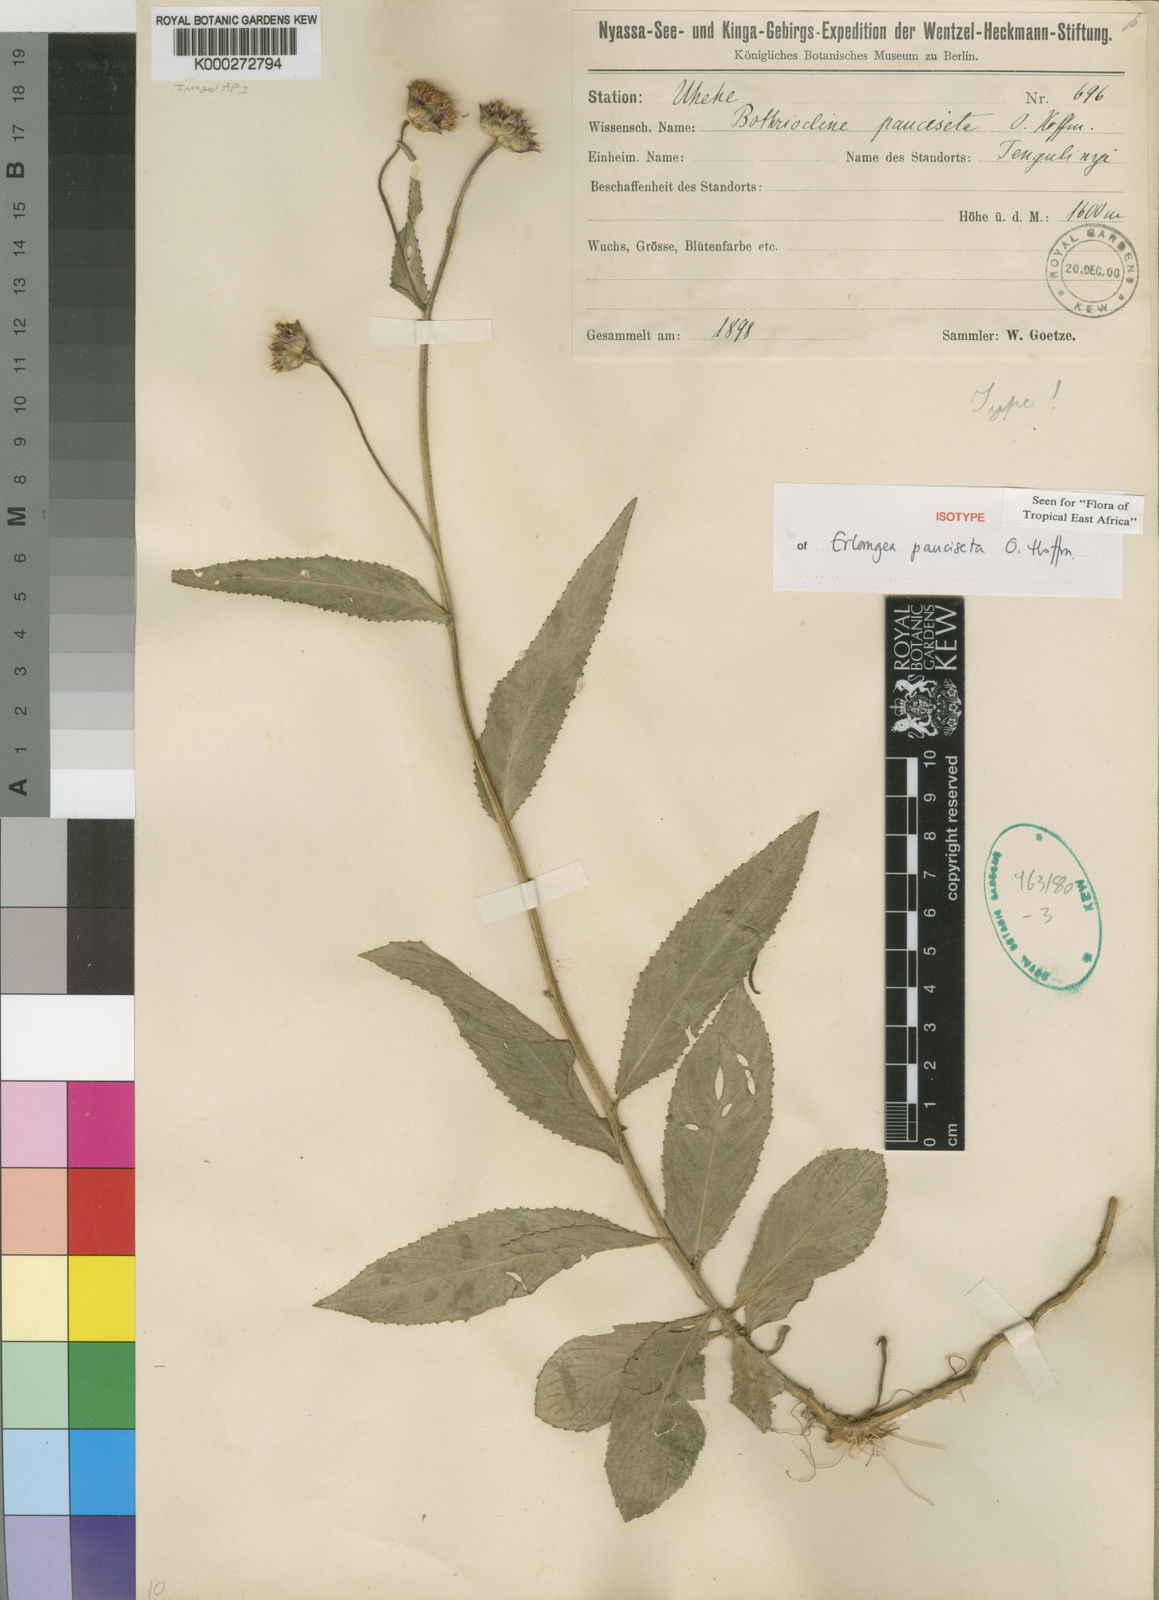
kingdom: Plantae
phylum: Tracheophyta
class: Magnoliopsida
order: Asterales
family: Asteraceae
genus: Bothriocline
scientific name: Bothriocline pauciseta
